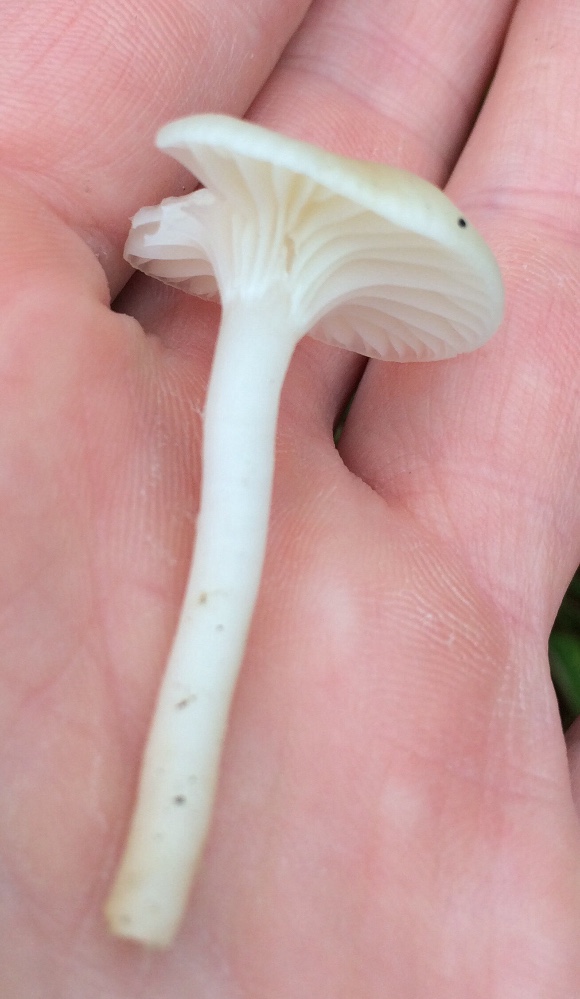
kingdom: Fungi
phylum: Basidiomycota
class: Agaricomycetes
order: Agaricales
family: Hygrophoraceae
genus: Cuphophyllus
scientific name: Cuphophyllus russocoriaceus
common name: ruslæder-vokshat
